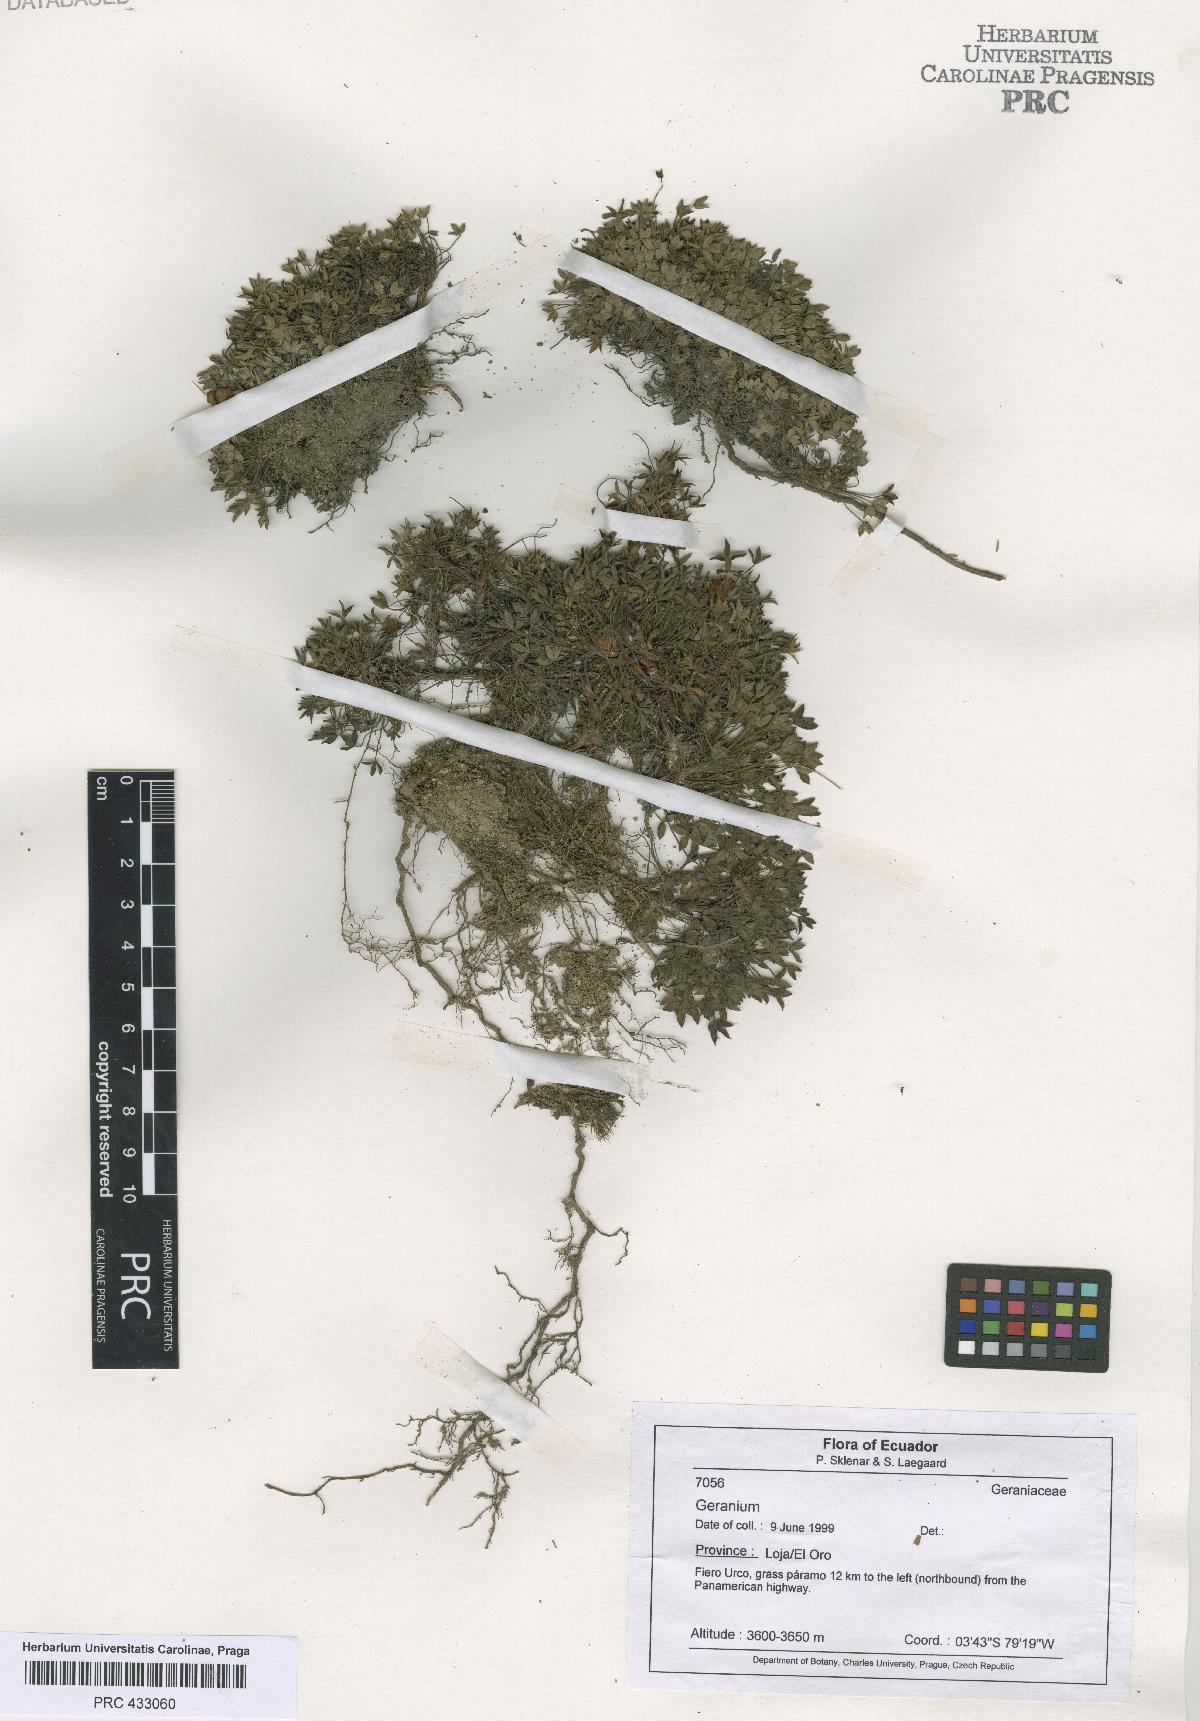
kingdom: Plantae
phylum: Tracheophyta
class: Magnoliopsida
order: Geraniales
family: Geraniaceae
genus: Geranium
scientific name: Geranium campii
